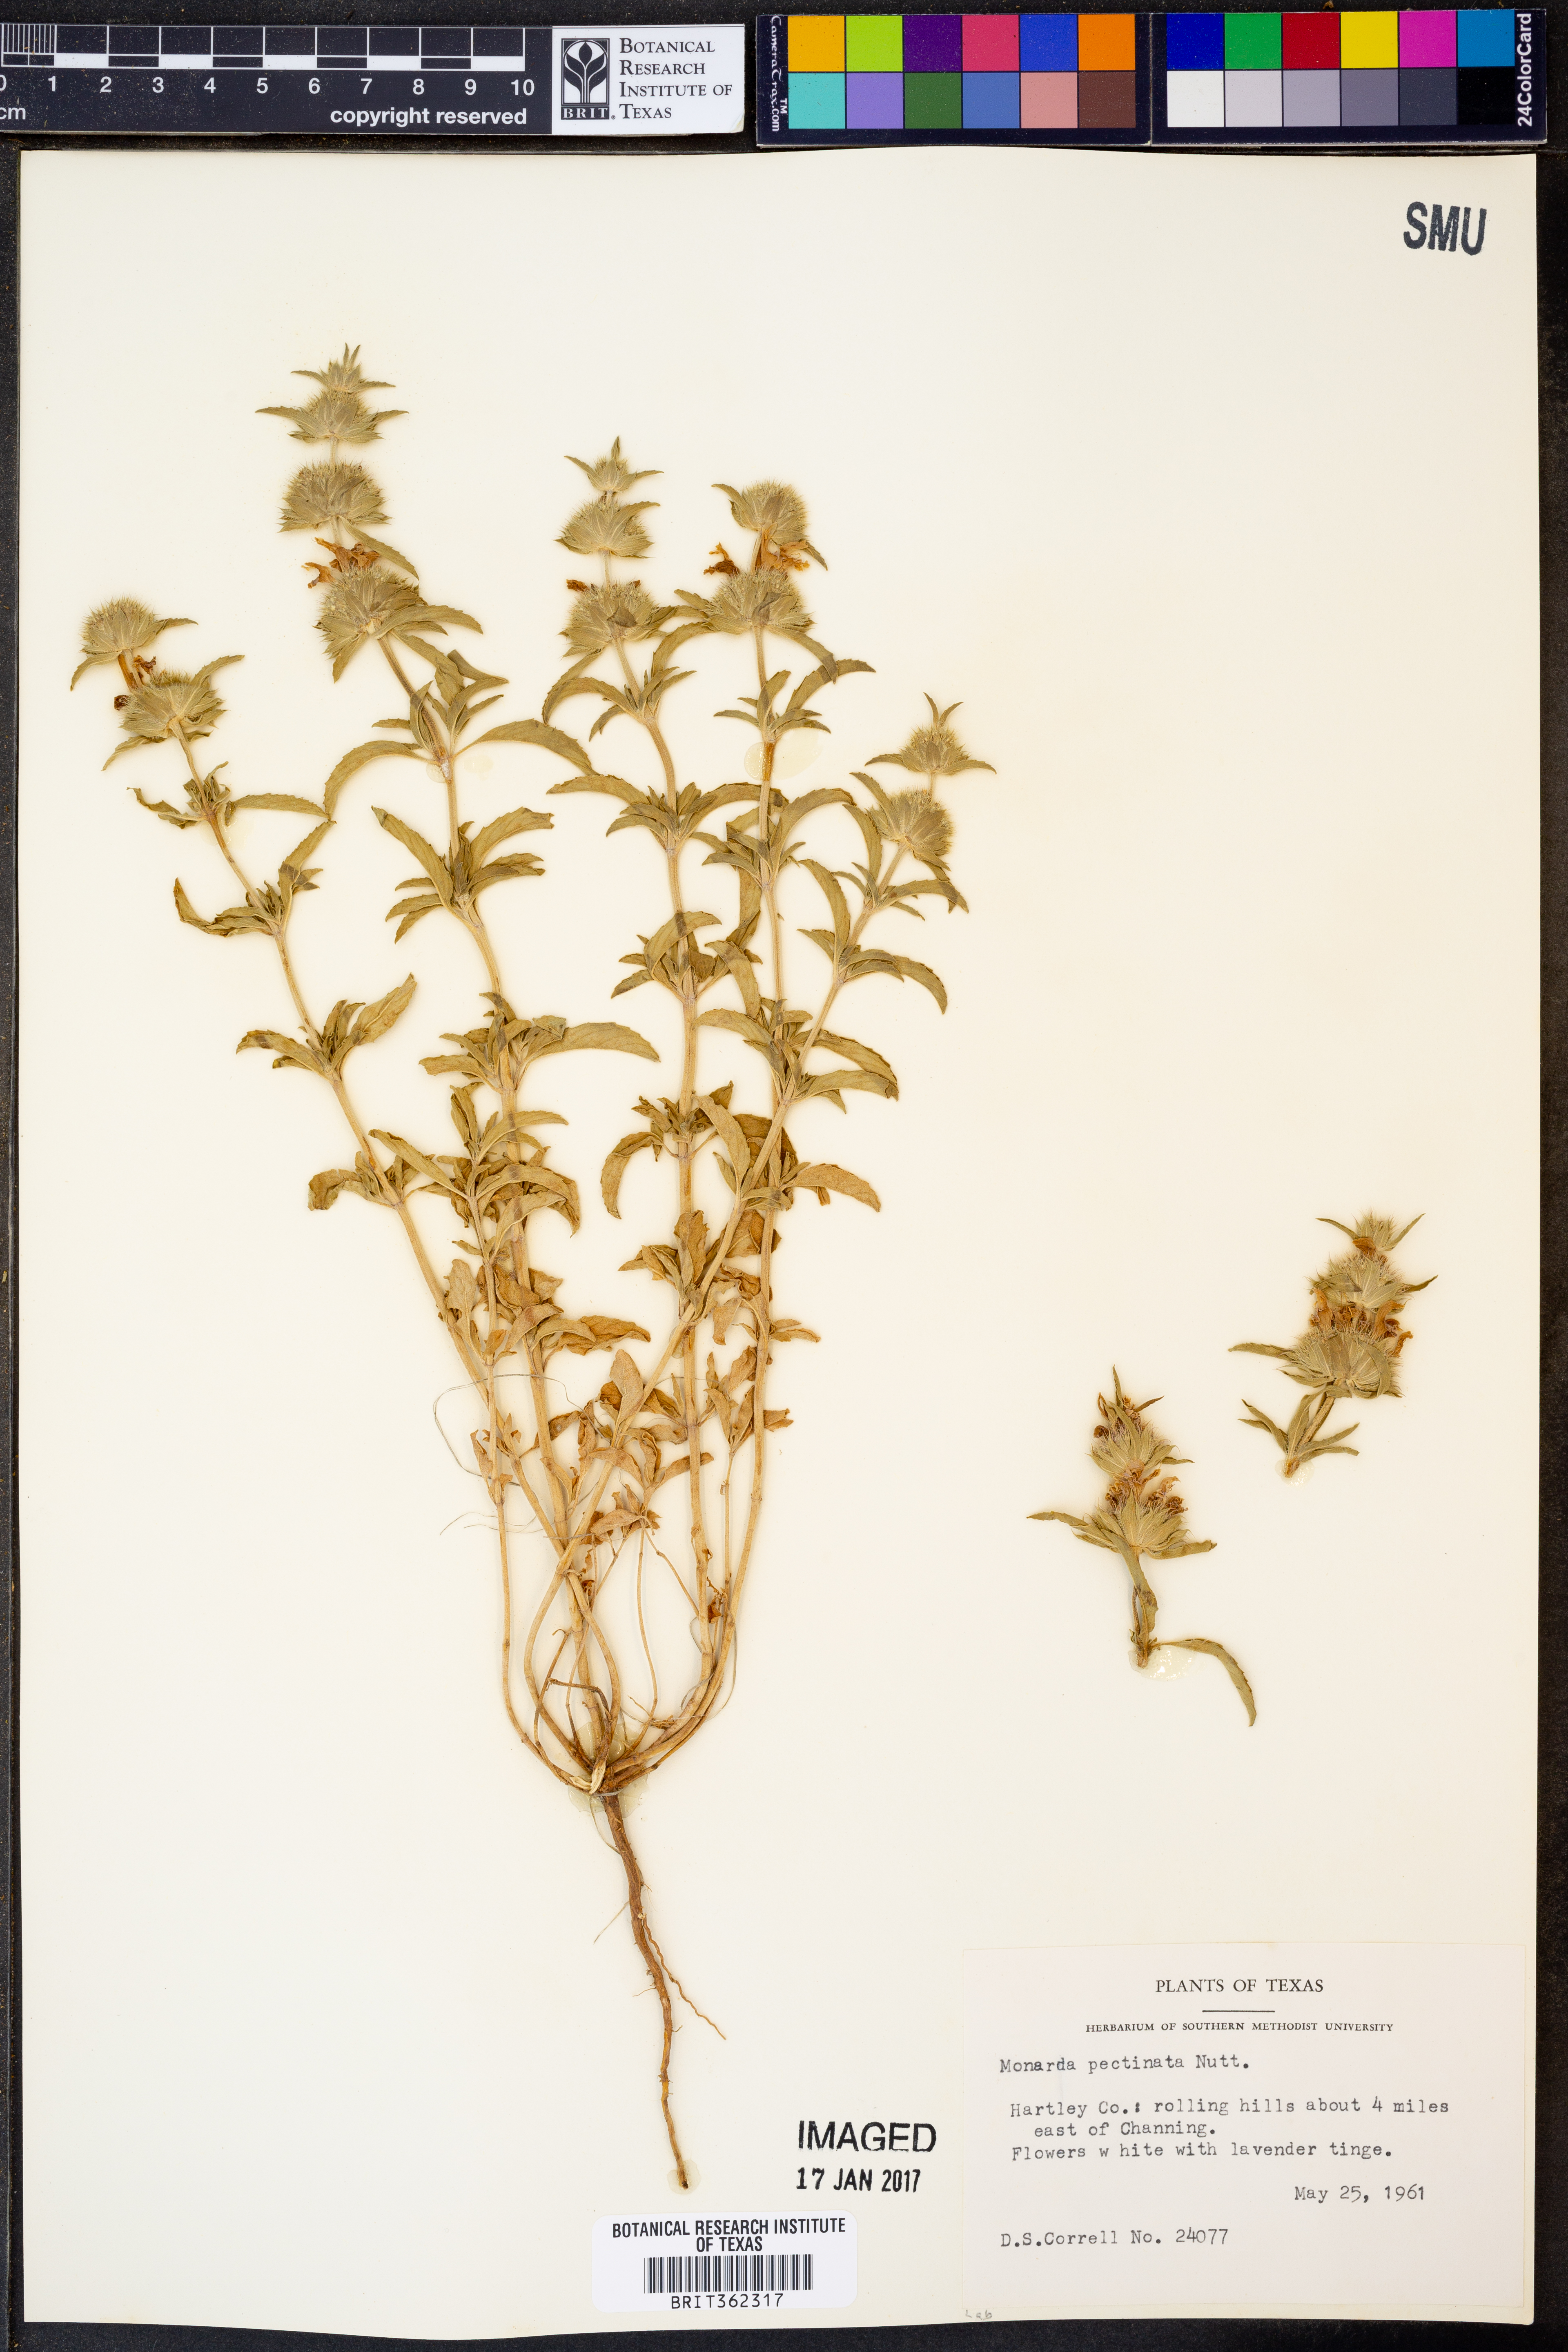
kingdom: Plantae
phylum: Tracheophyta
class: Magnoliopsida
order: Lamiales
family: Lamiaceae
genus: Monarda
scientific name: Monarda pectinata
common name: Plains beebalm
